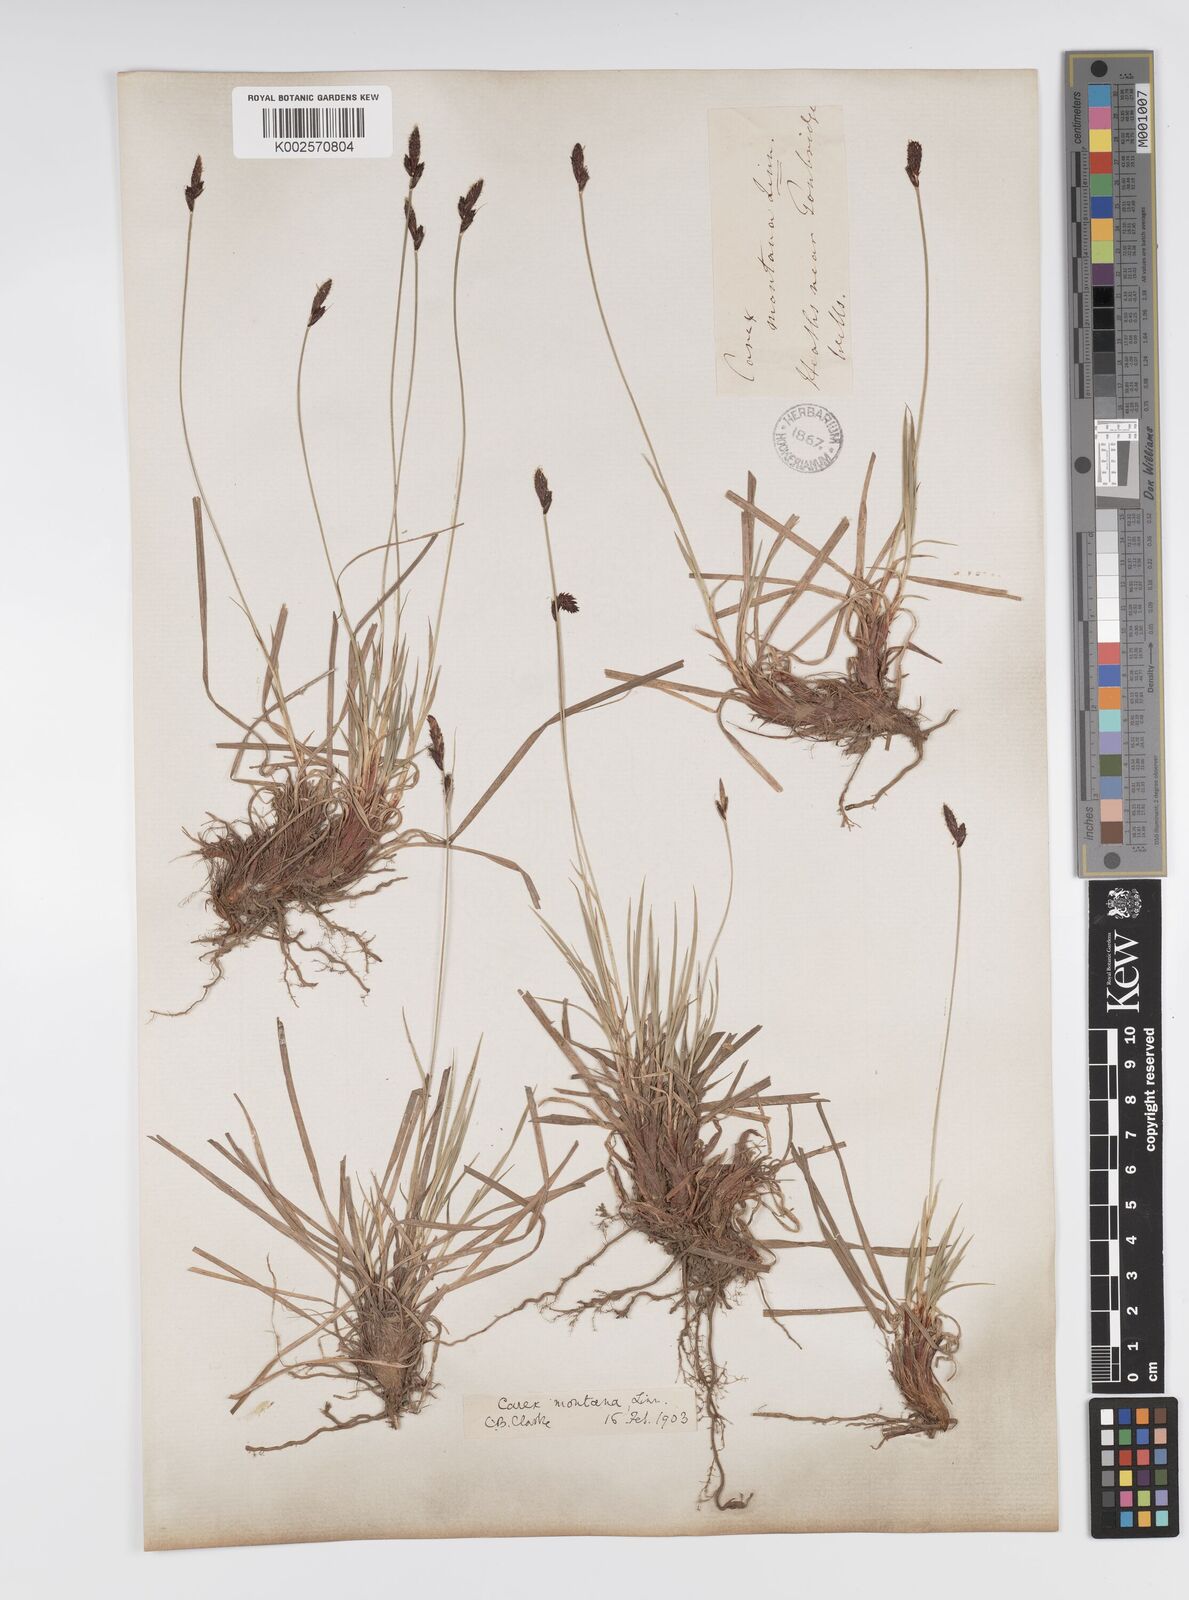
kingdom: Plantae
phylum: Tracheophyta
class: Liliopsida
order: Poales
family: Cyperaceae
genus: Carex
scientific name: Carex montana
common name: Soft-leaved sedge
